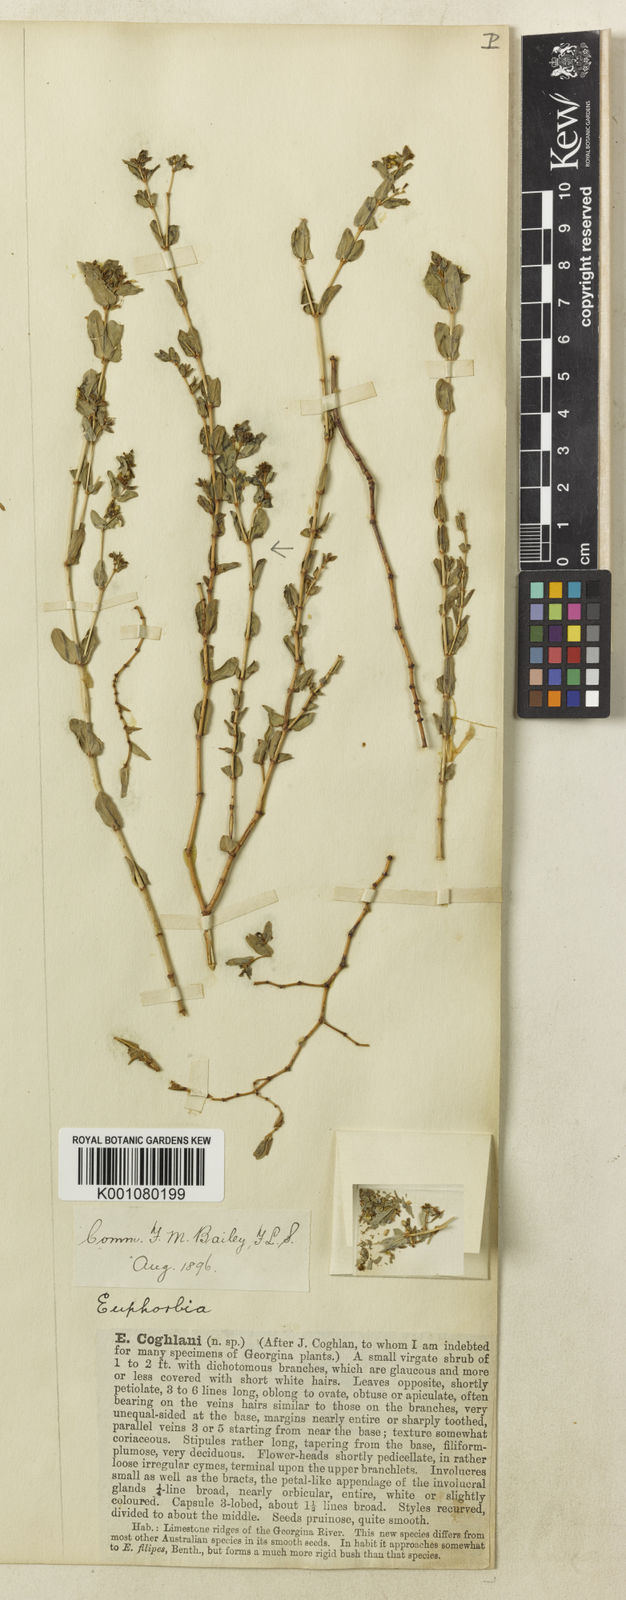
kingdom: Plantae
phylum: Tracheophyta
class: Magnoliopsida
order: Malpighiales
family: Euphorbiaceae
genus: Euphorbia
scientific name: Euphorbia coghlanii
